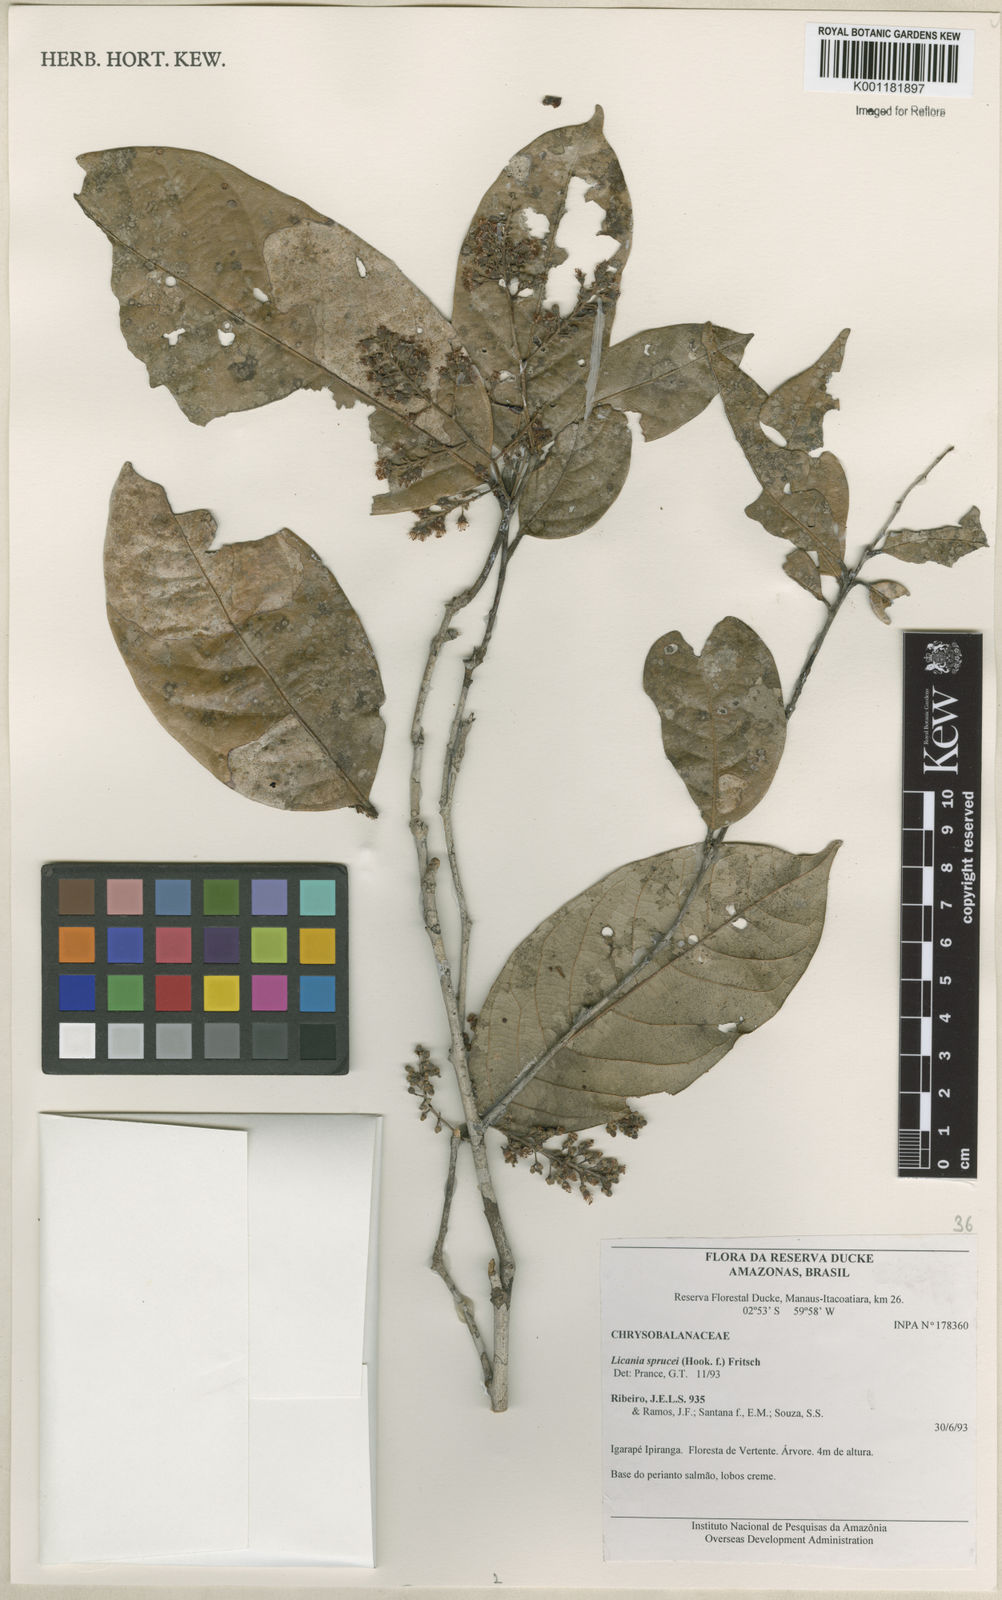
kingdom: Plantae
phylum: Tracheophyta
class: Magnoliopsida
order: Malpighiales
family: Chrysobalanaceae
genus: Leptobalanus
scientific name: Leptobalanus sprucei
